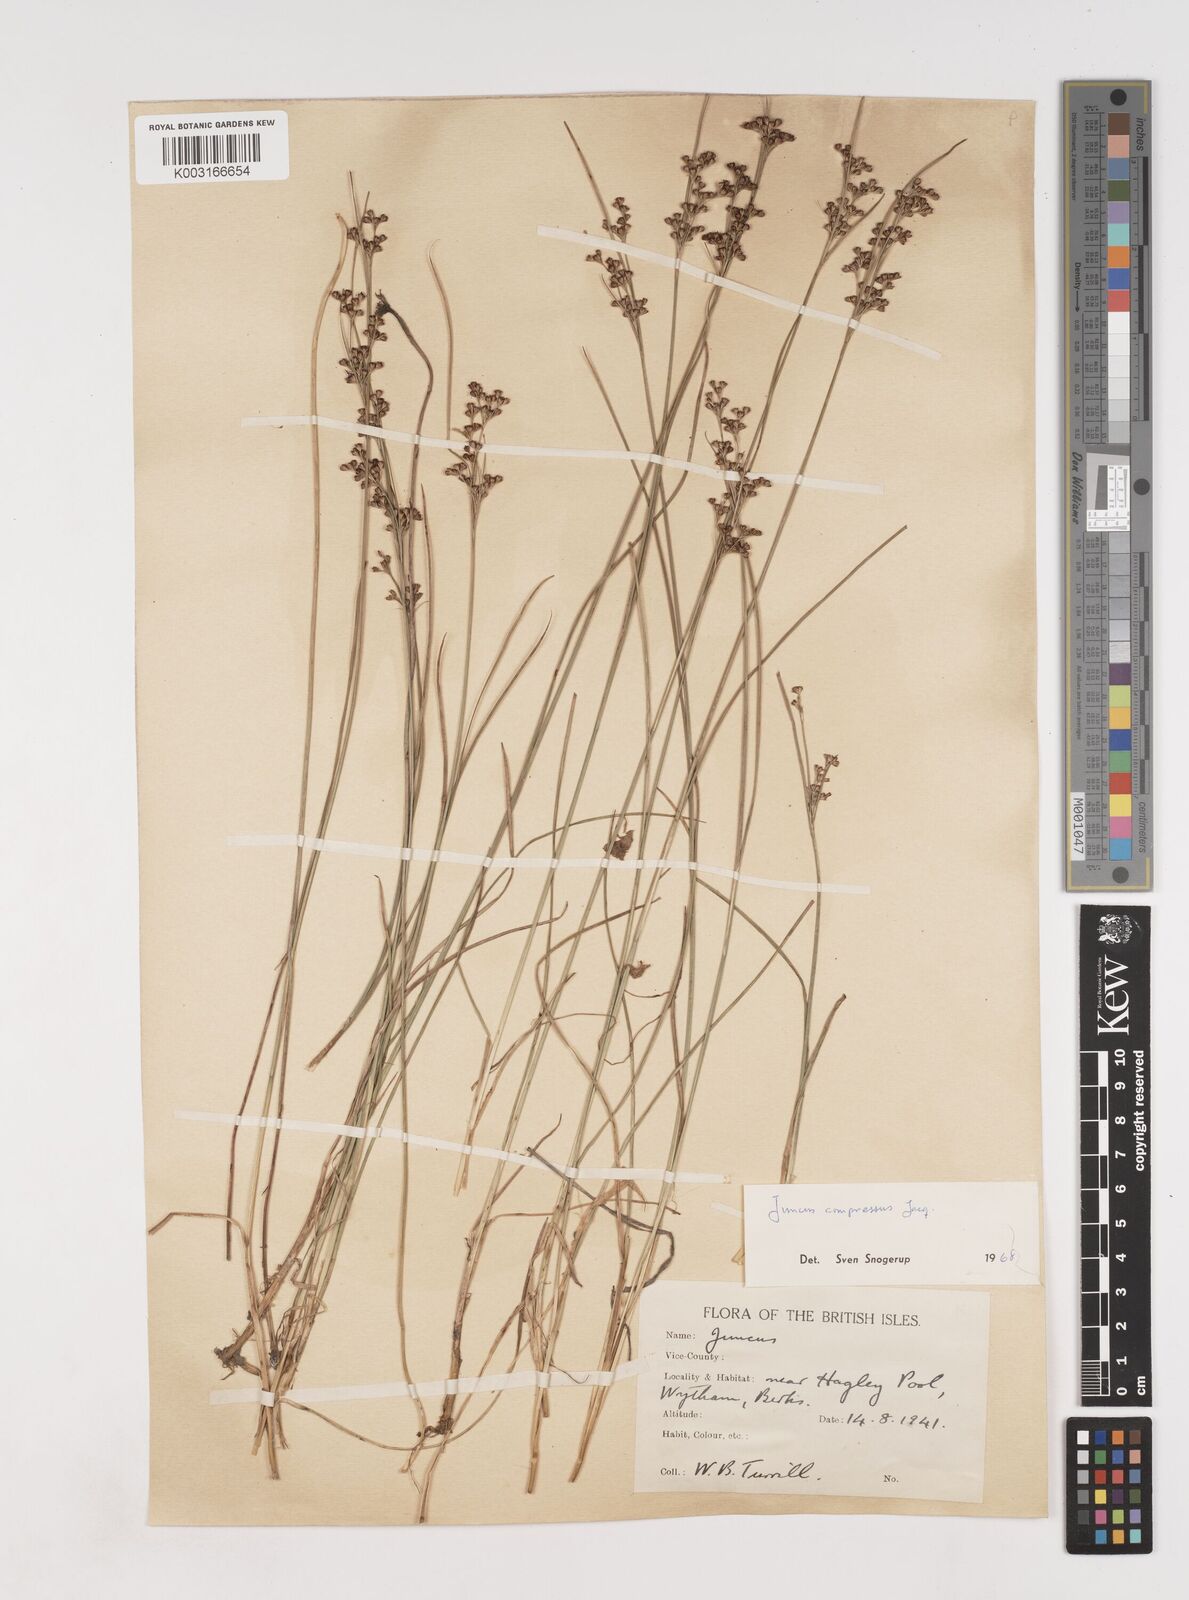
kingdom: Plantae
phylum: Tracheophyta
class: Liliopsida
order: Poales
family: Juncaceae
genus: Juncus
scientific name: Juncus compressus
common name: Round-fruited rush
